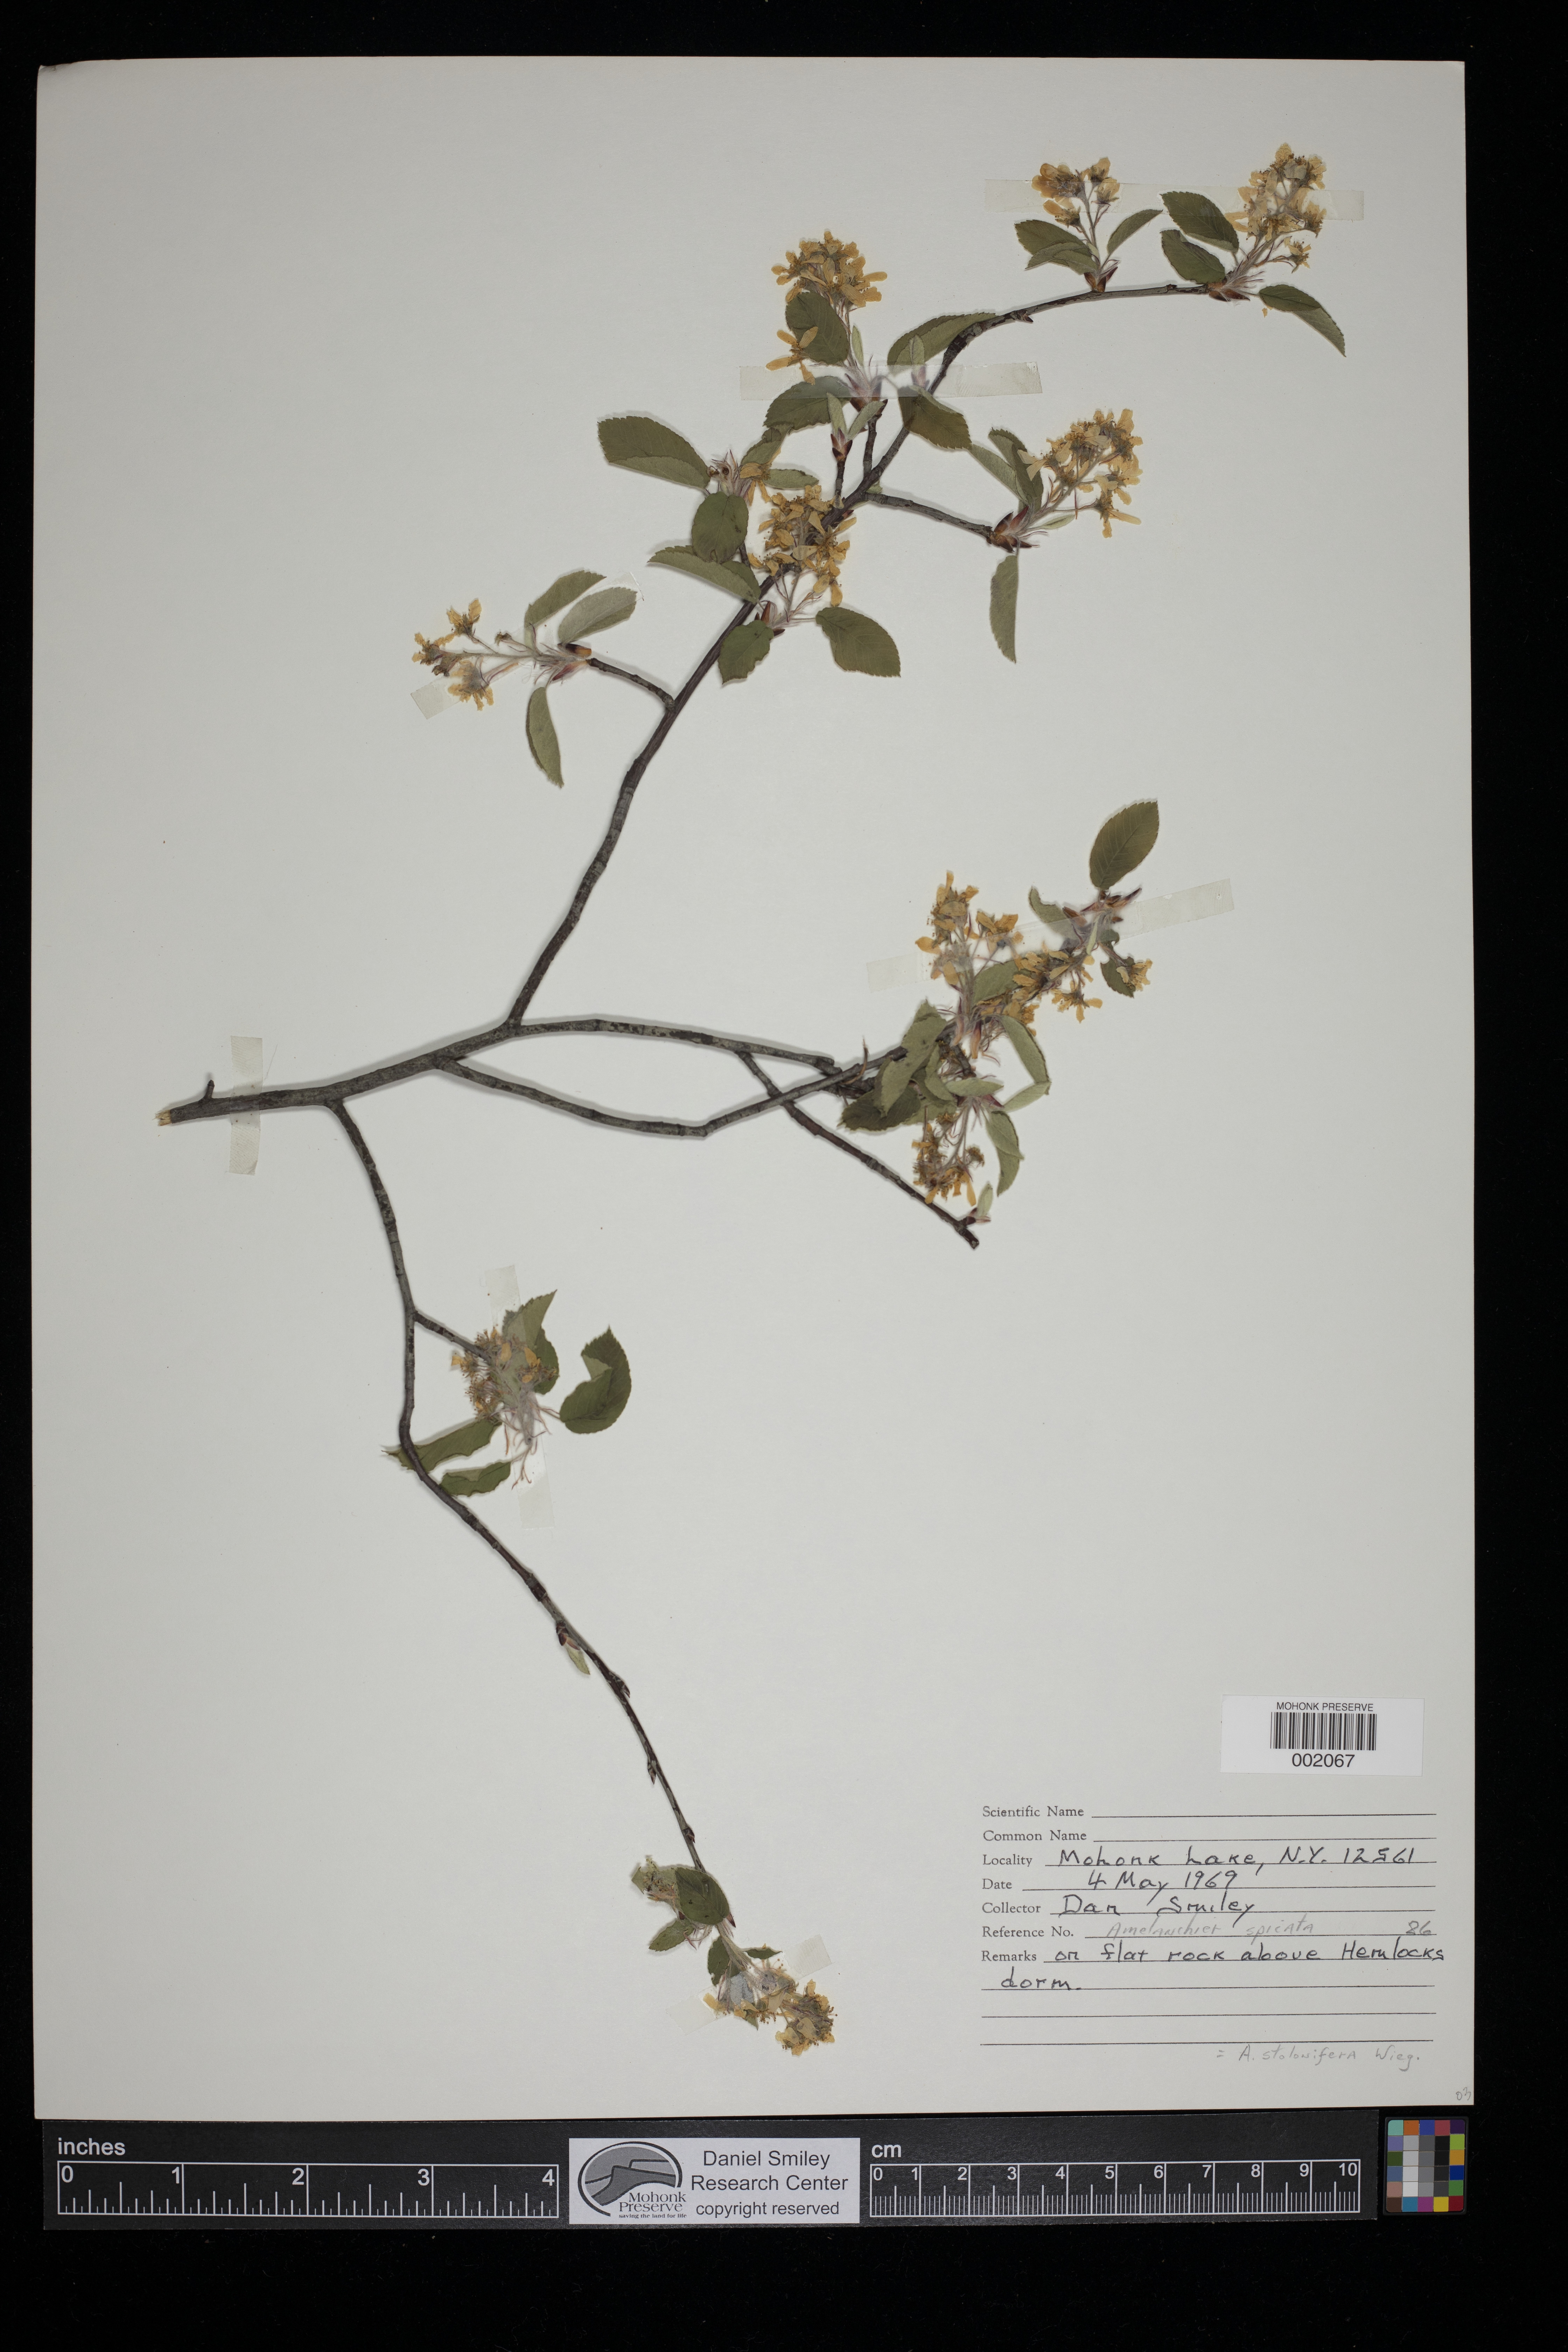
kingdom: Plantae
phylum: Tracheophyta
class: Magnoliopsida
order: Rosales
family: Rosaceae
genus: Amelanchier
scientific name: Amelanchier stolonifera
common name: Running serviceberry
